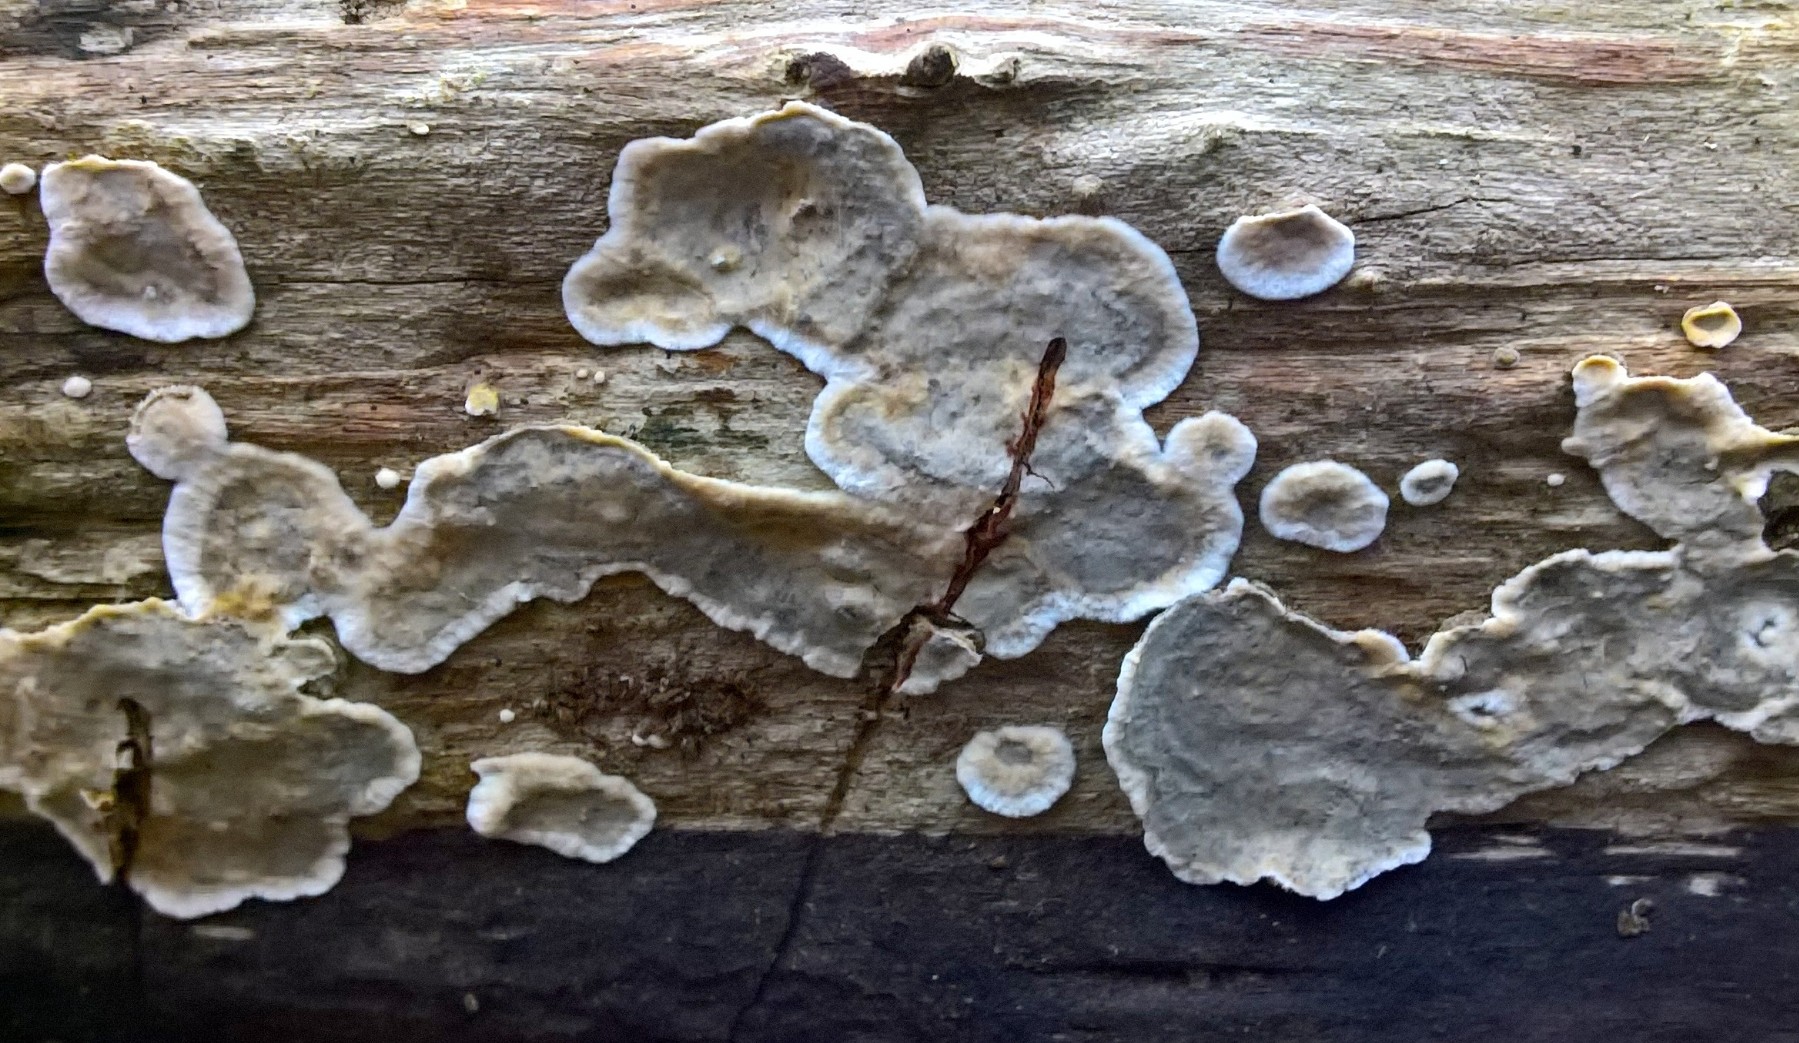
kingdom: Fungi
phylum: Basidiomycota
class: Agaricomycetes
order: Russulales
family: Stereaceae
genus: Stereum
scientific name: Stereum rugosum
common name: rynket lædersvamp
